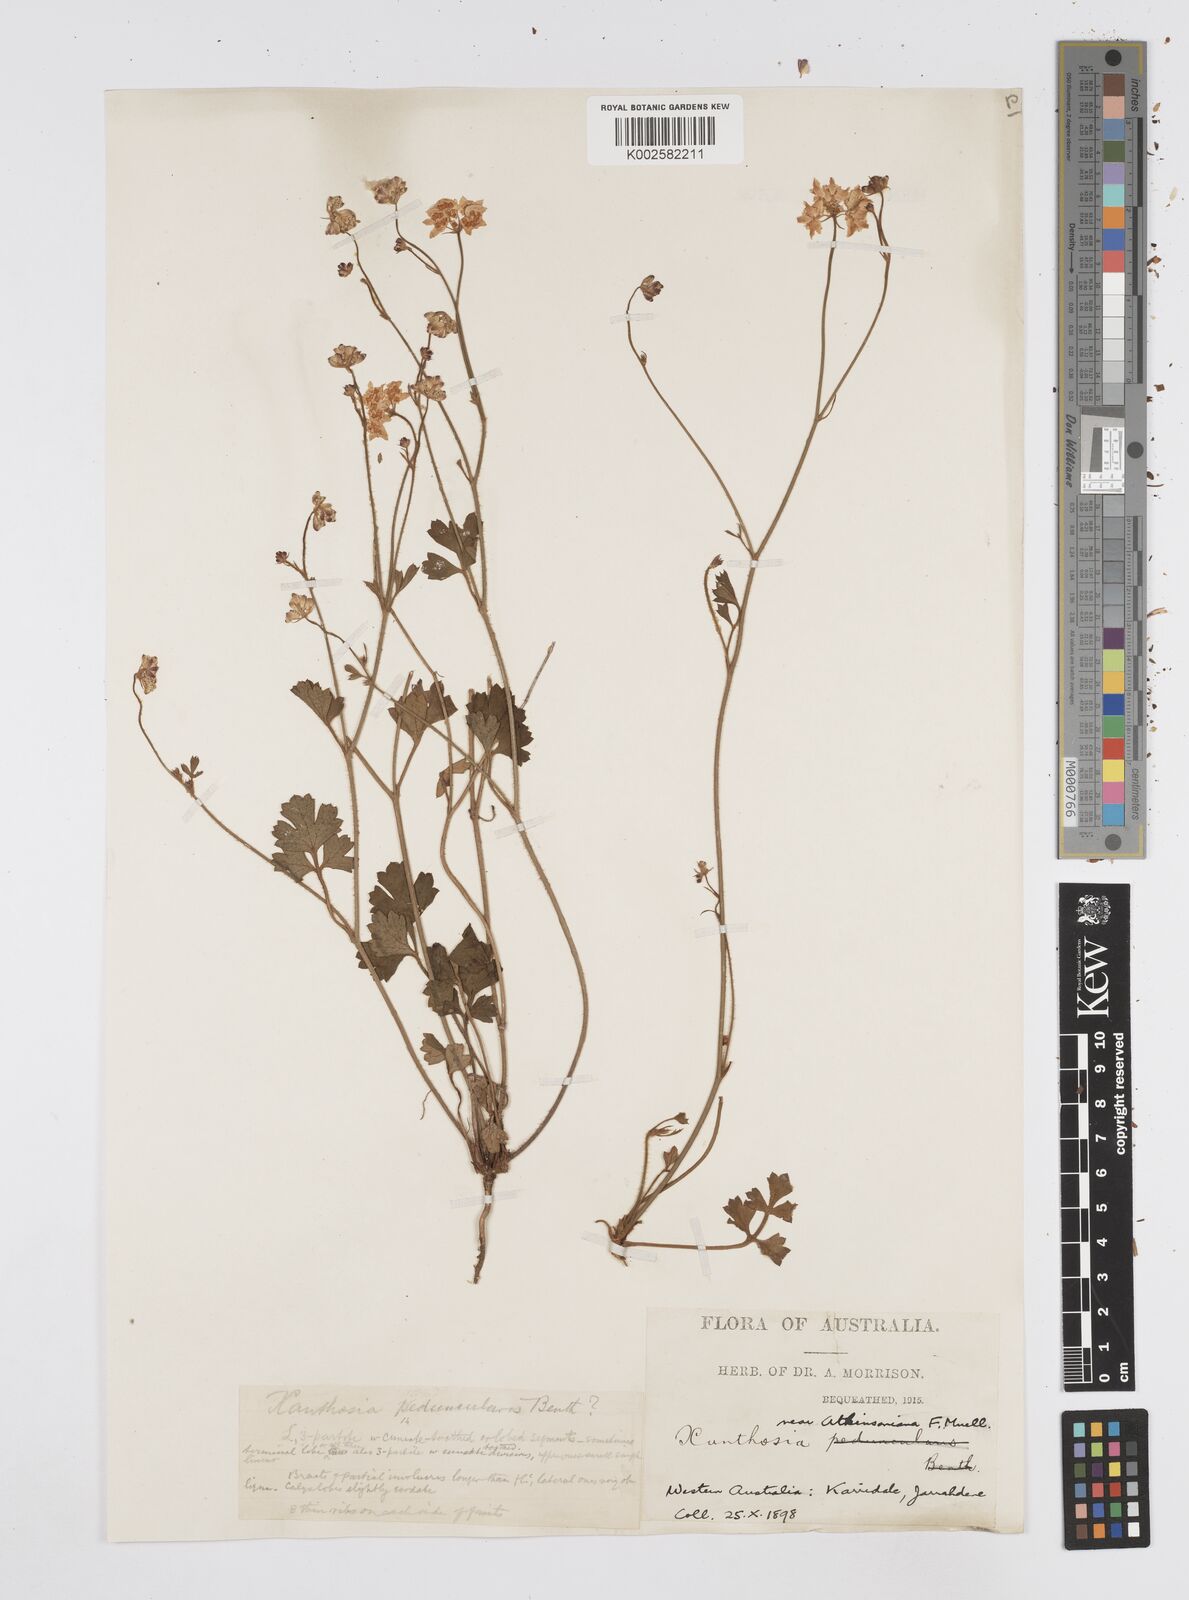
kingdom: Plantae
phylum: Tracheophyta
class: Magnoliopsida
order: Apiales
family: Apiaceae
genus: Xanthosia
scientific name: Xanthosia atkinsoniana
